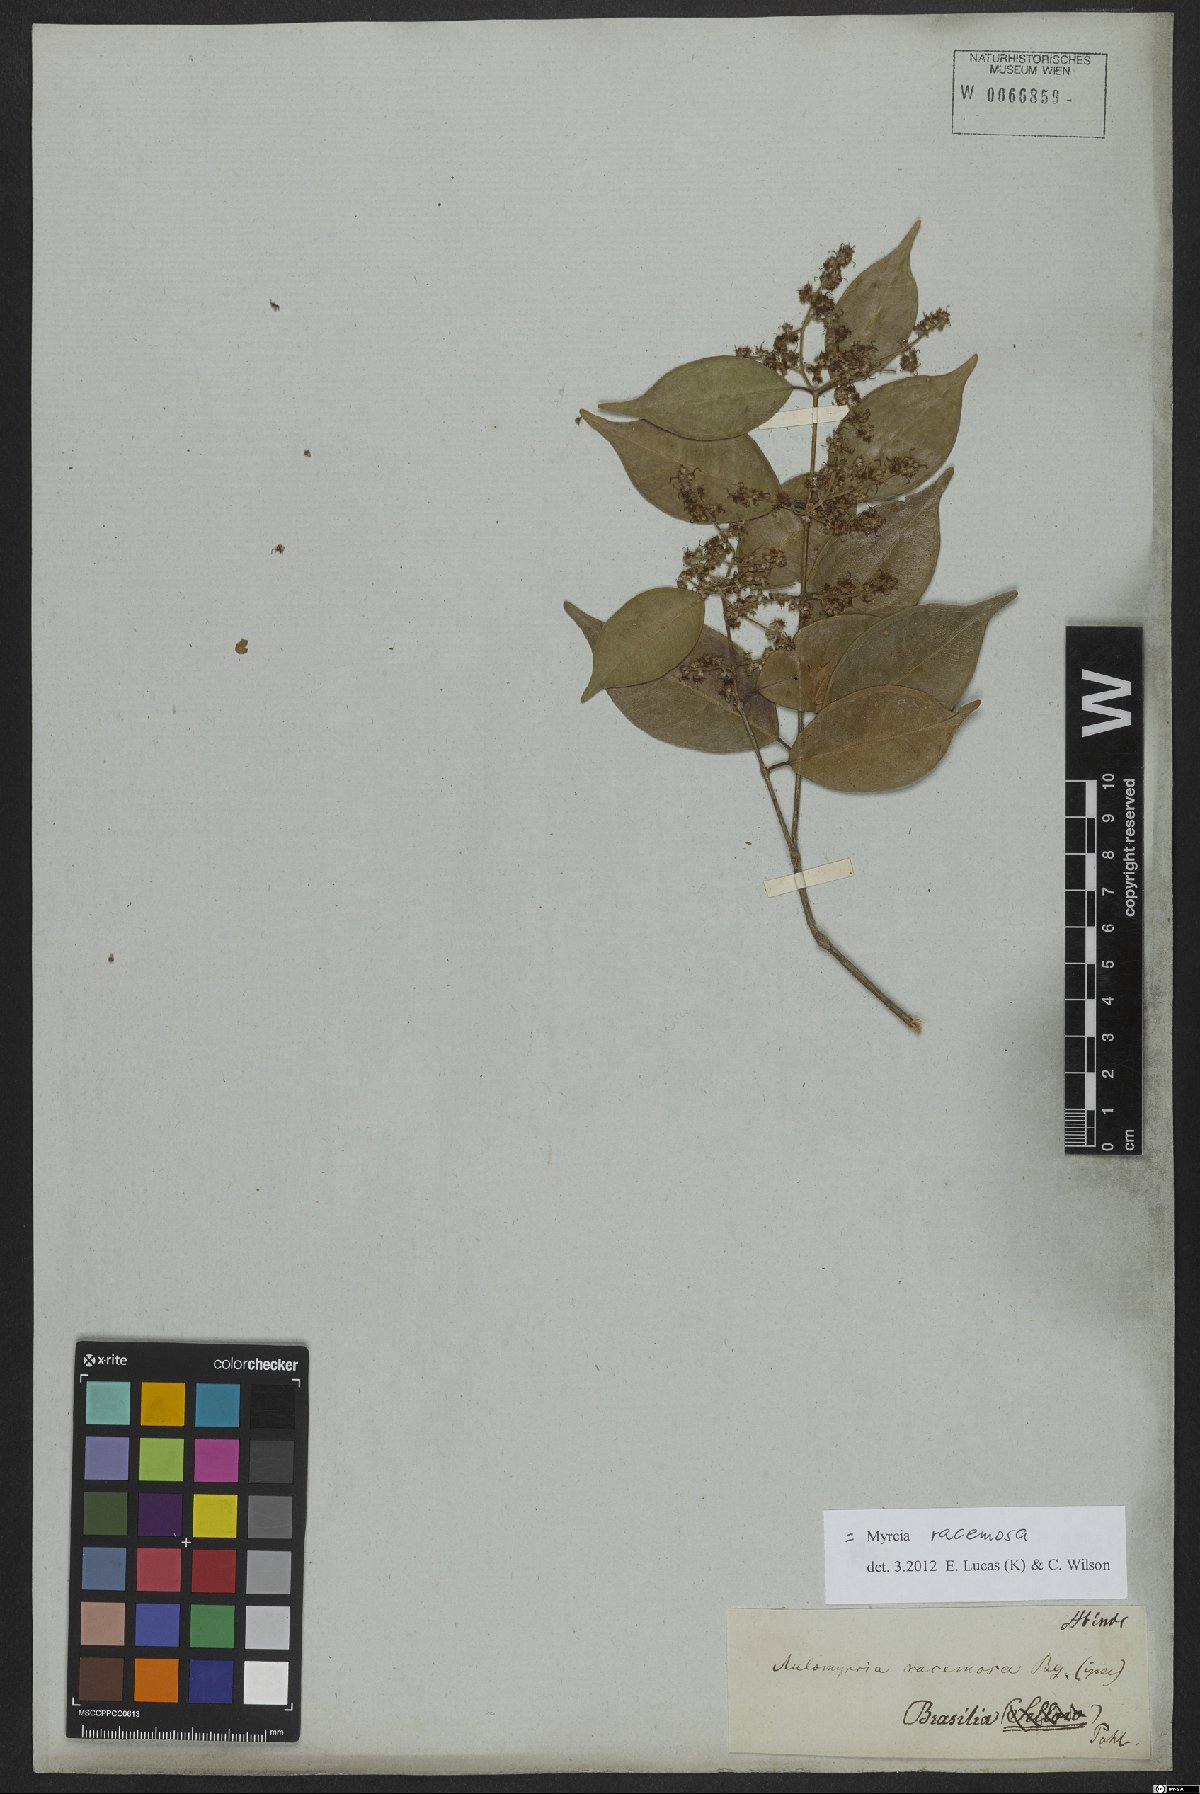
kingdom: Plantae
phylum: Tracheophyta
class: Magnoliopsida
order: Myrtales
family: Myrtaceae
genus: Myrcia
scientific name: Myrcia racemosa
